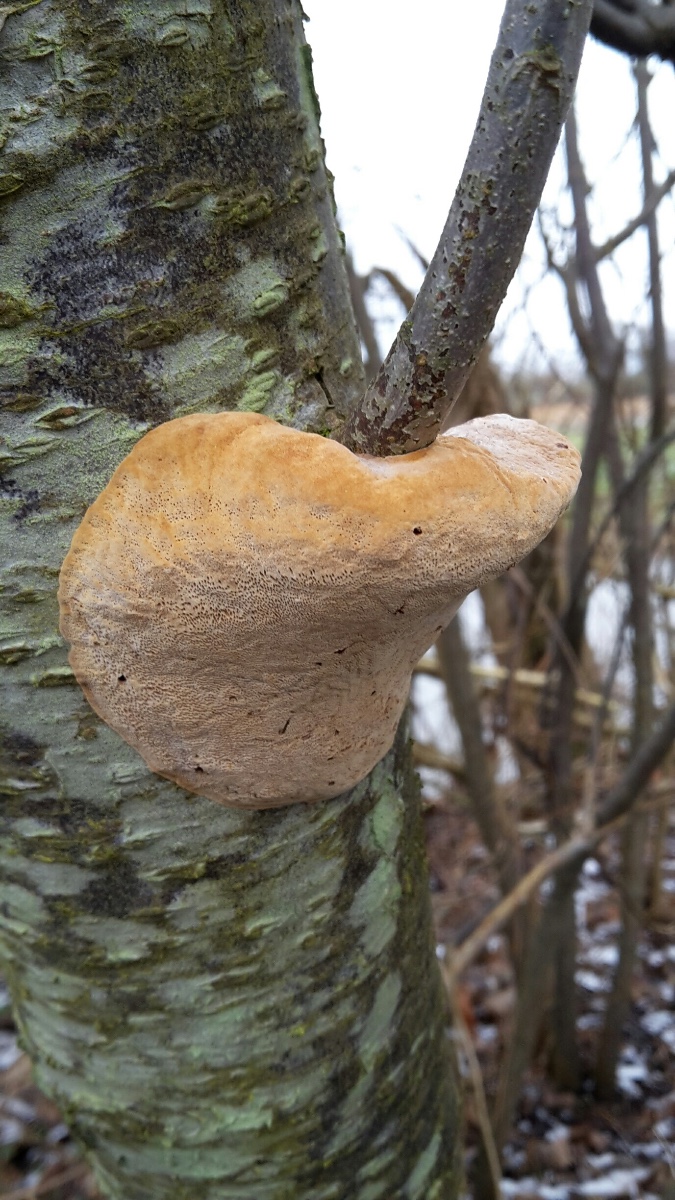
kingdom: Fungi
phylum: Basidiomycota
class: Agaricomycetes
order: Hymenochaetales
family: Hymenochaetaceae
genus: Phellinus
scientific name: Phellinus pomaceus
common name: blomme-ildporesvamp
